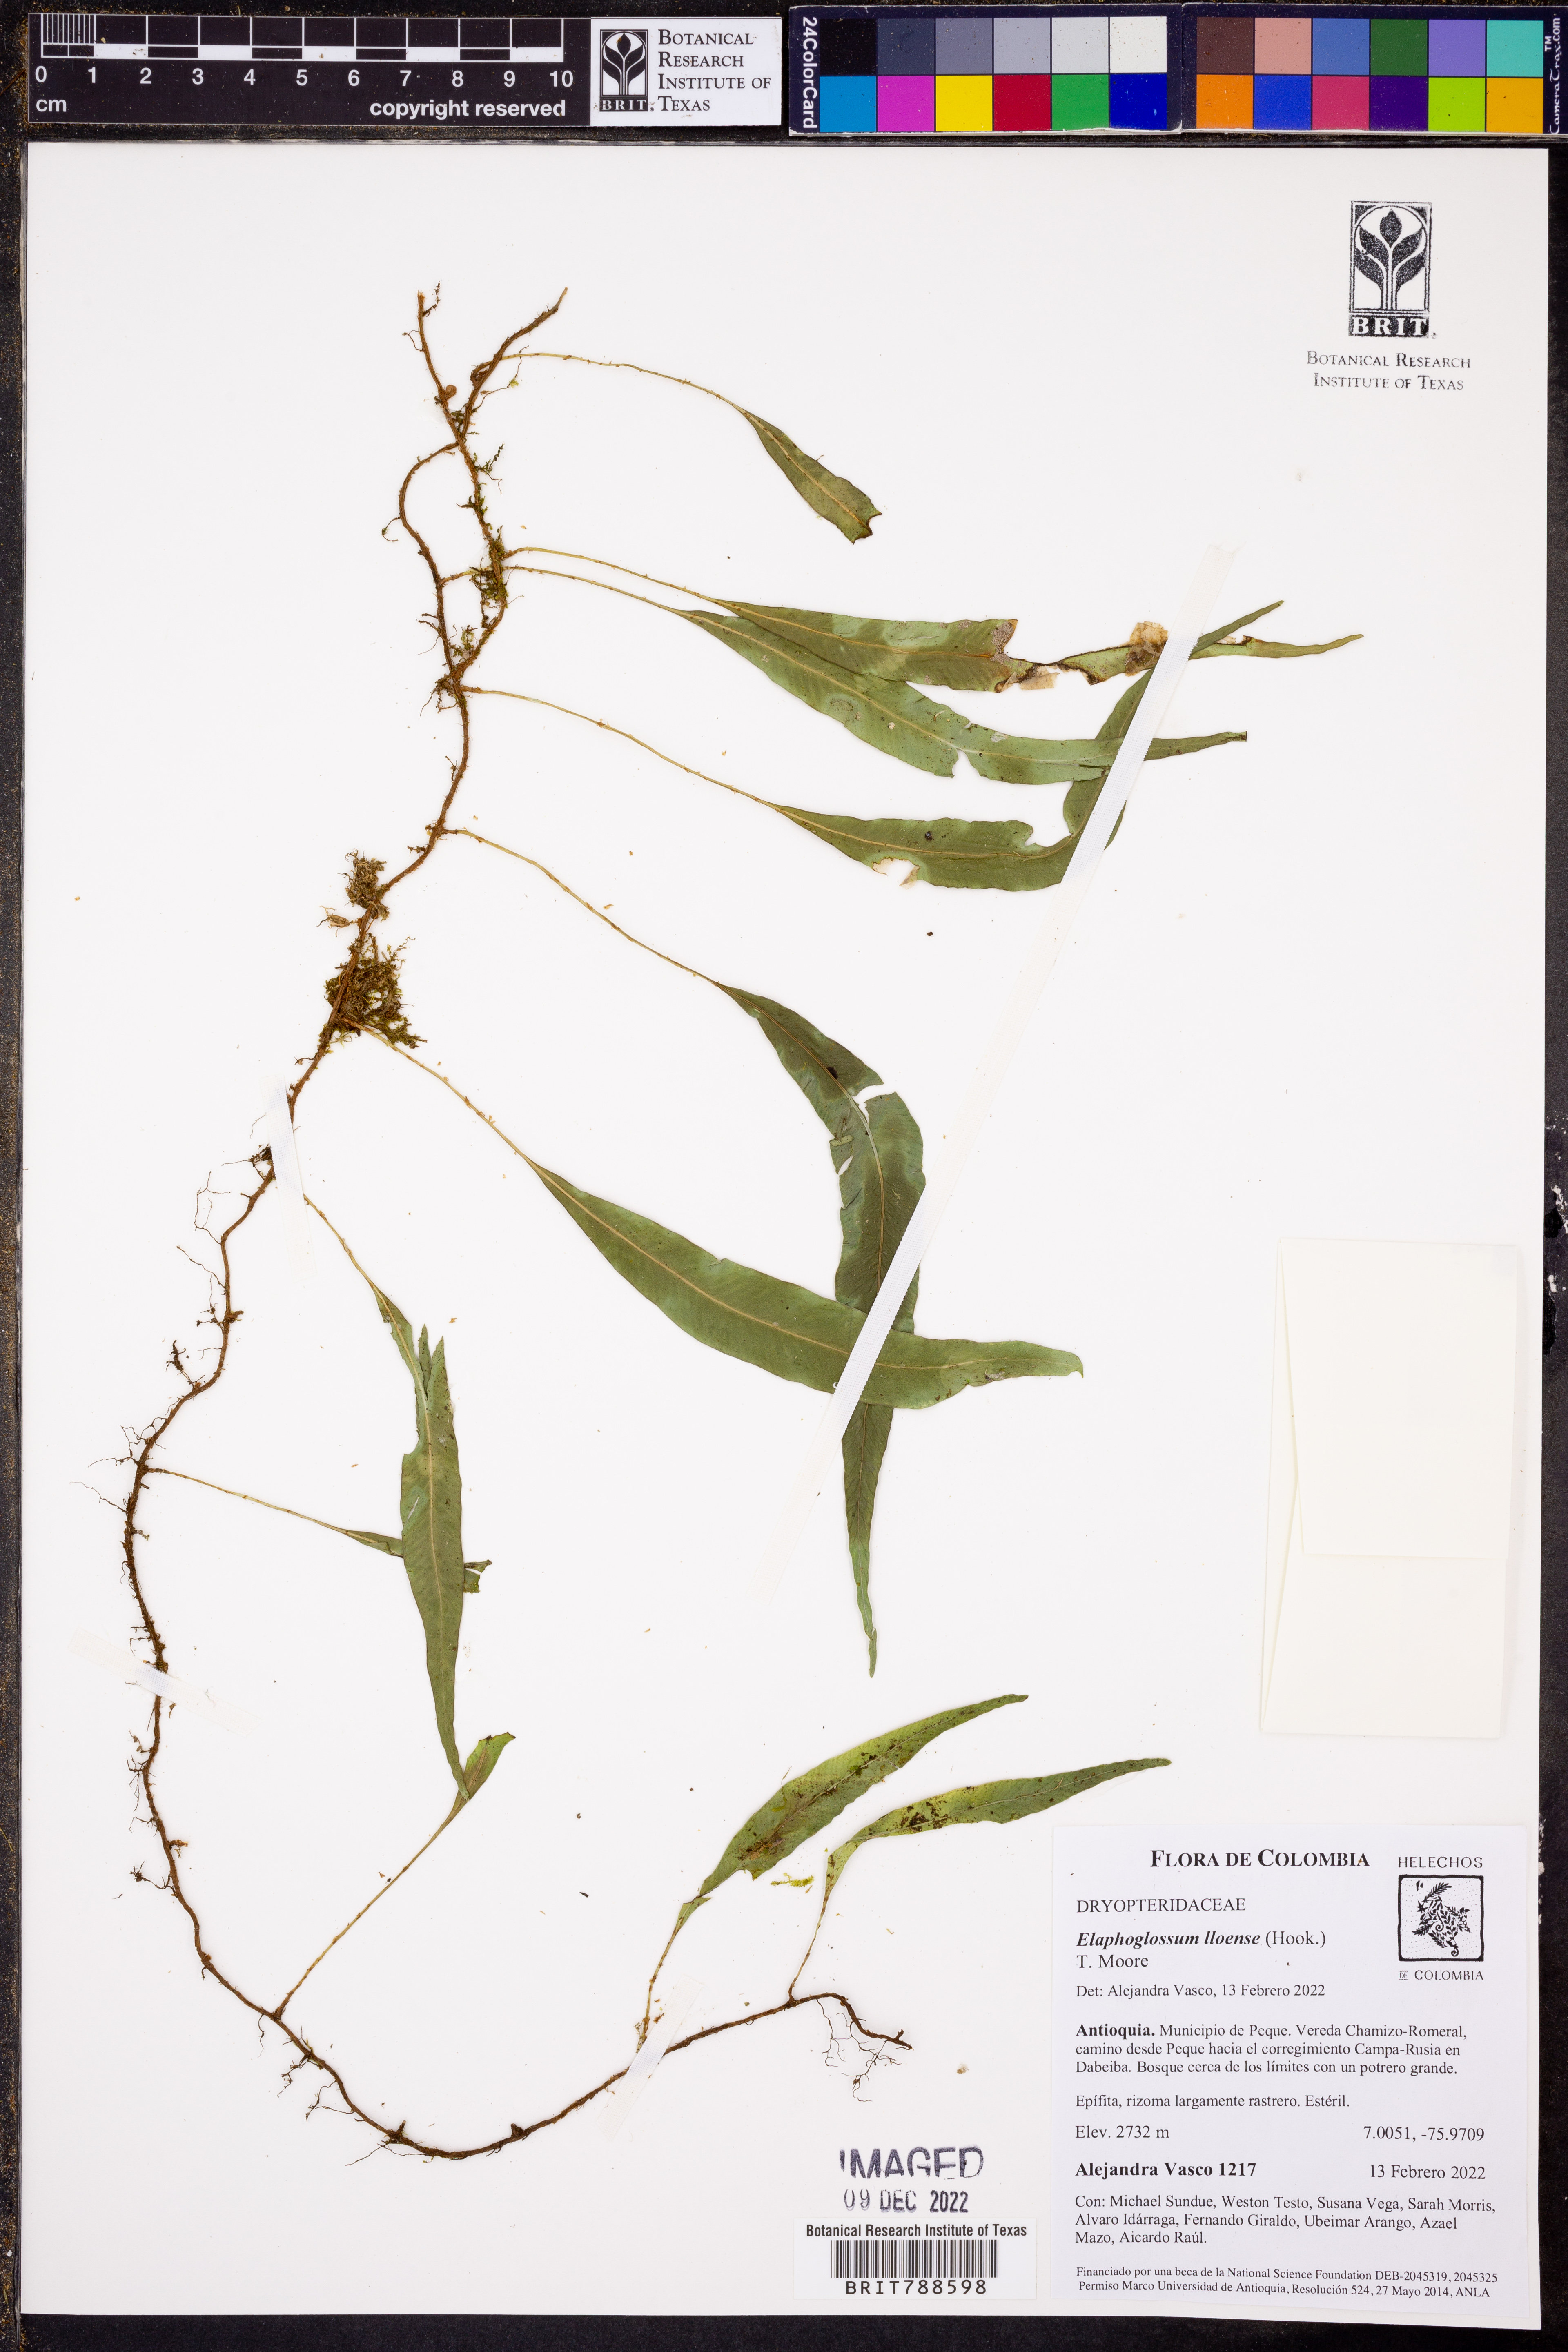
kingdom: Plantae
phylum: Tracheophyta
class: Polypodiopsida
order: Polypodiales
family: Dryopteridaceae
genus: Elaphoglossum
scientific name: Elaphoglossum lloense
